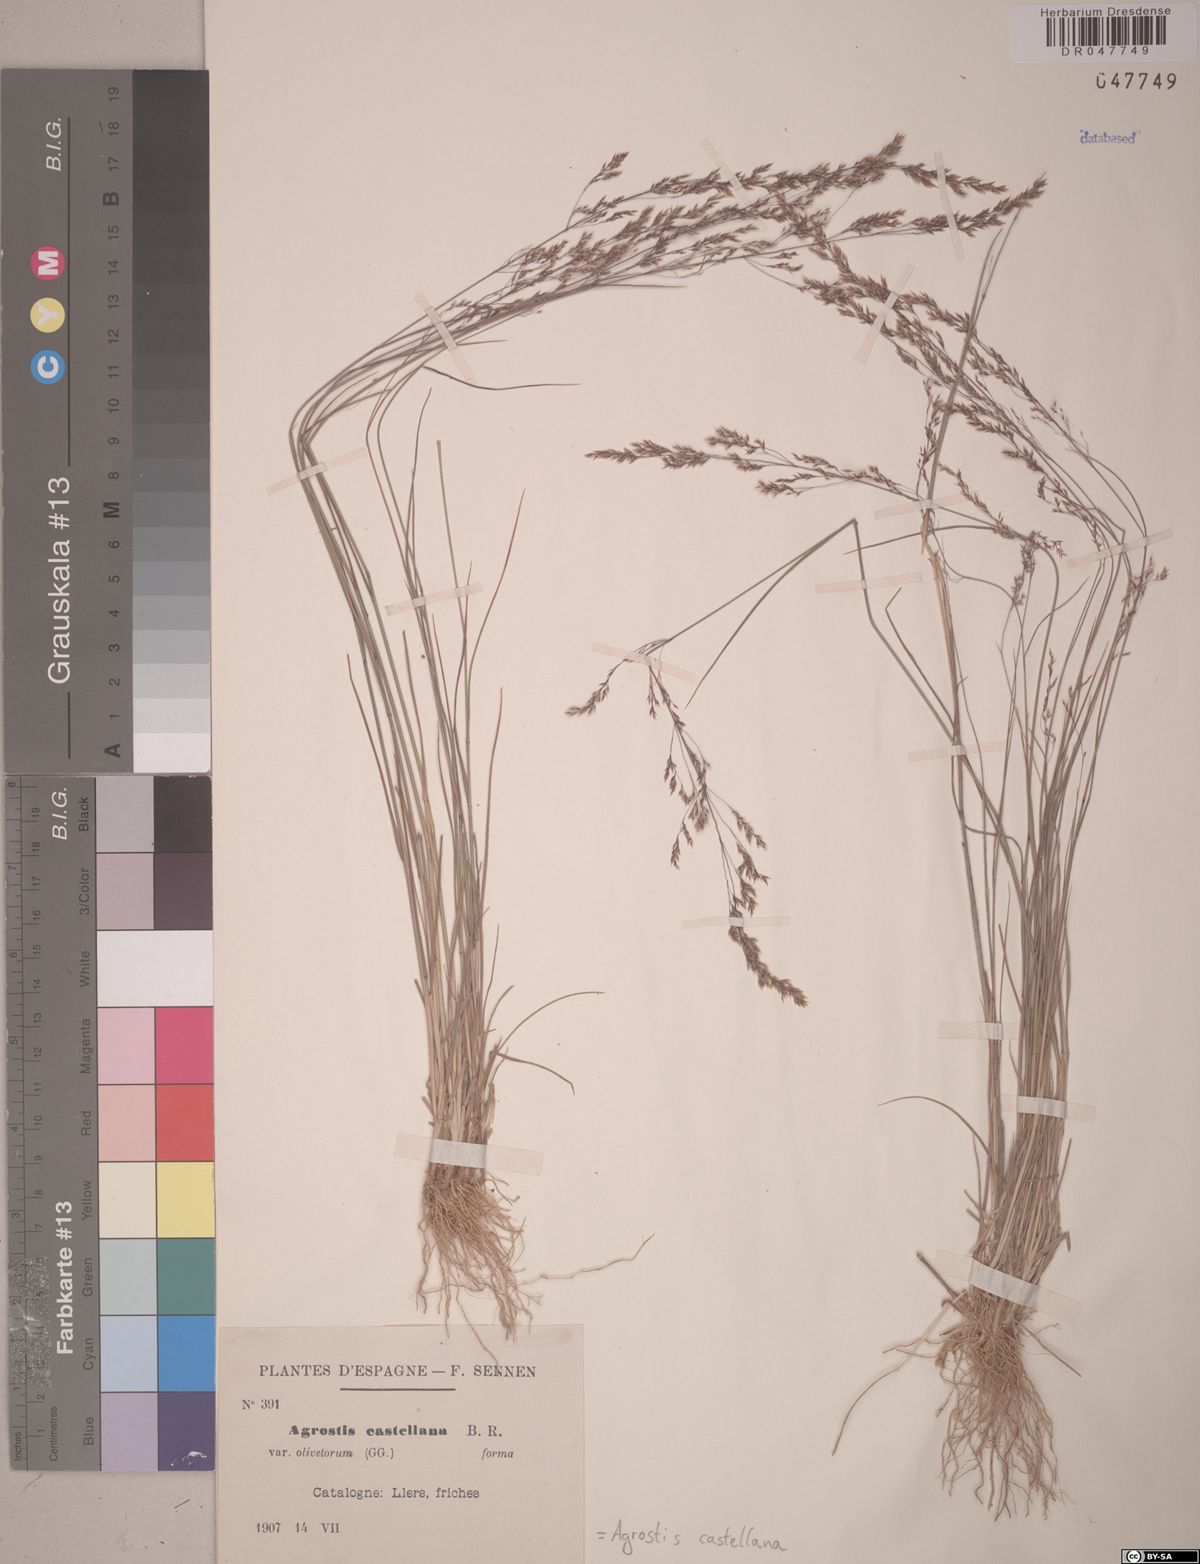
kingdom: Plantae
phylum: Tracheophyta
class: Liliopsida
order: Poales
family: Poaceae
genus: Agrostis
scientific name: Agrostis castellana
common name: Highland bent
